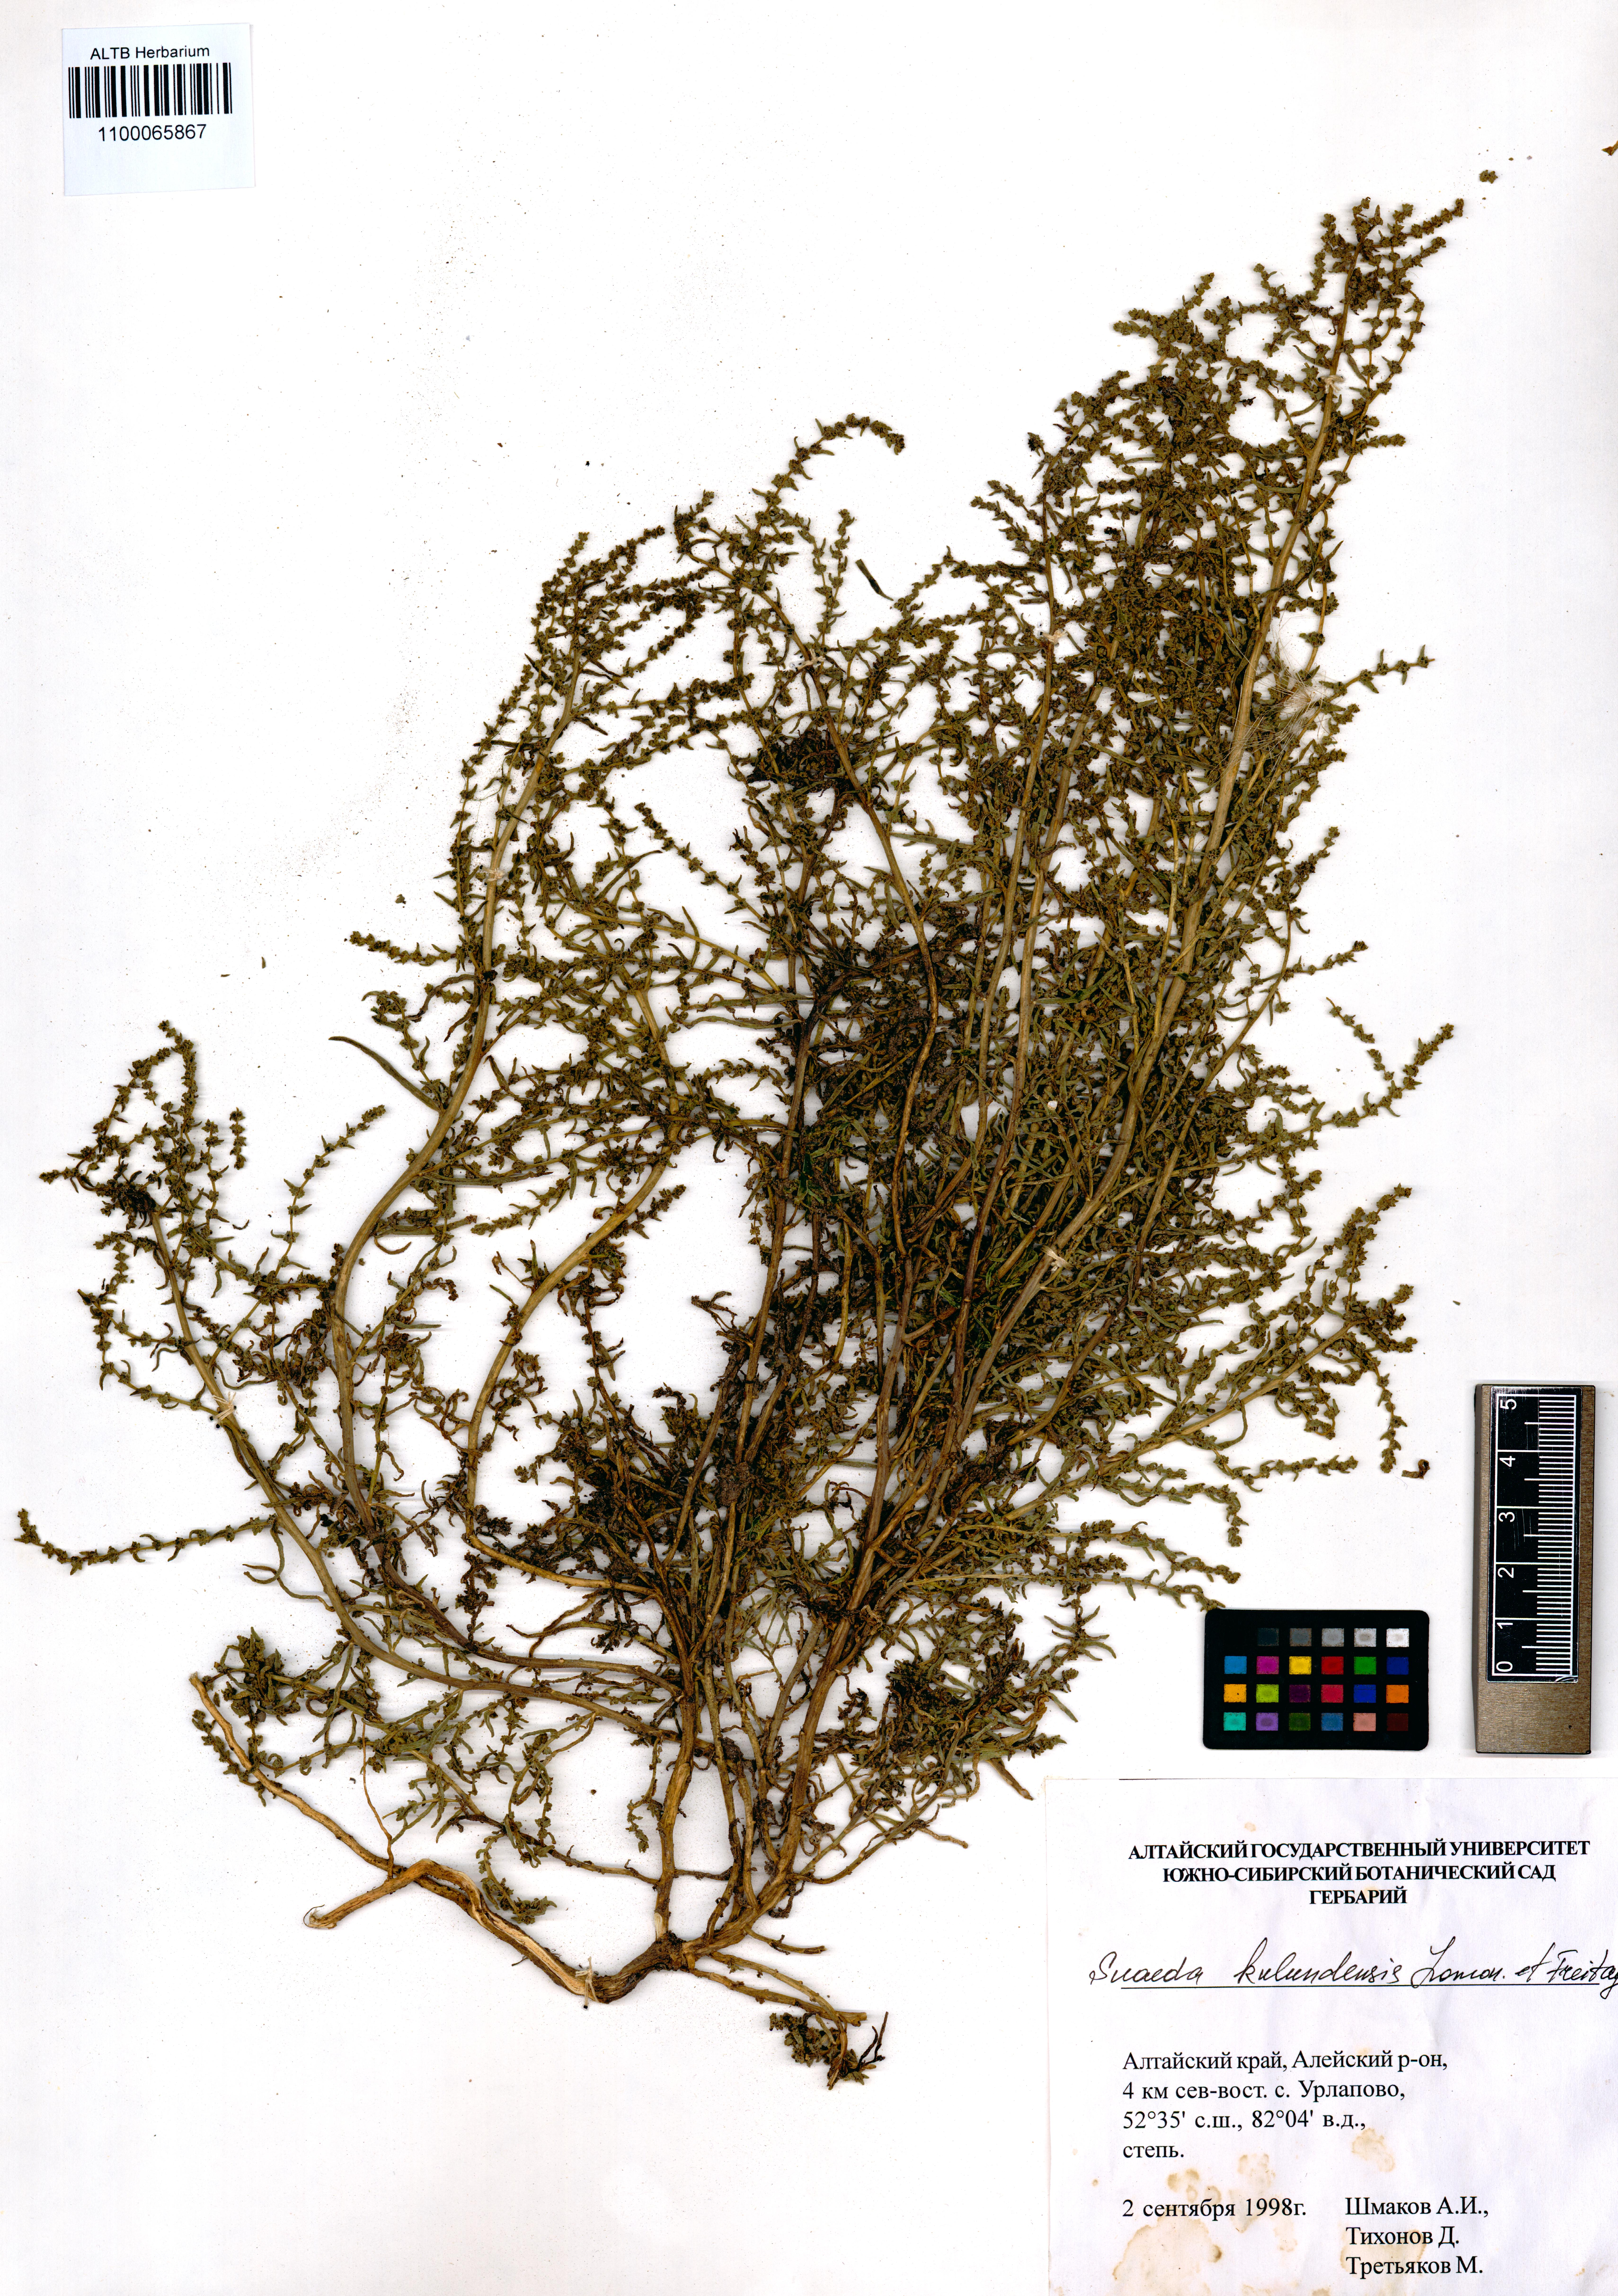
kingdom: Plantae
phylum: Tracheophyta
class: Magnoliopsida
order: Caryophyllales
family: Amaranthaceae
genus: Suaeda
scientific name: Suaeda kulundensis
